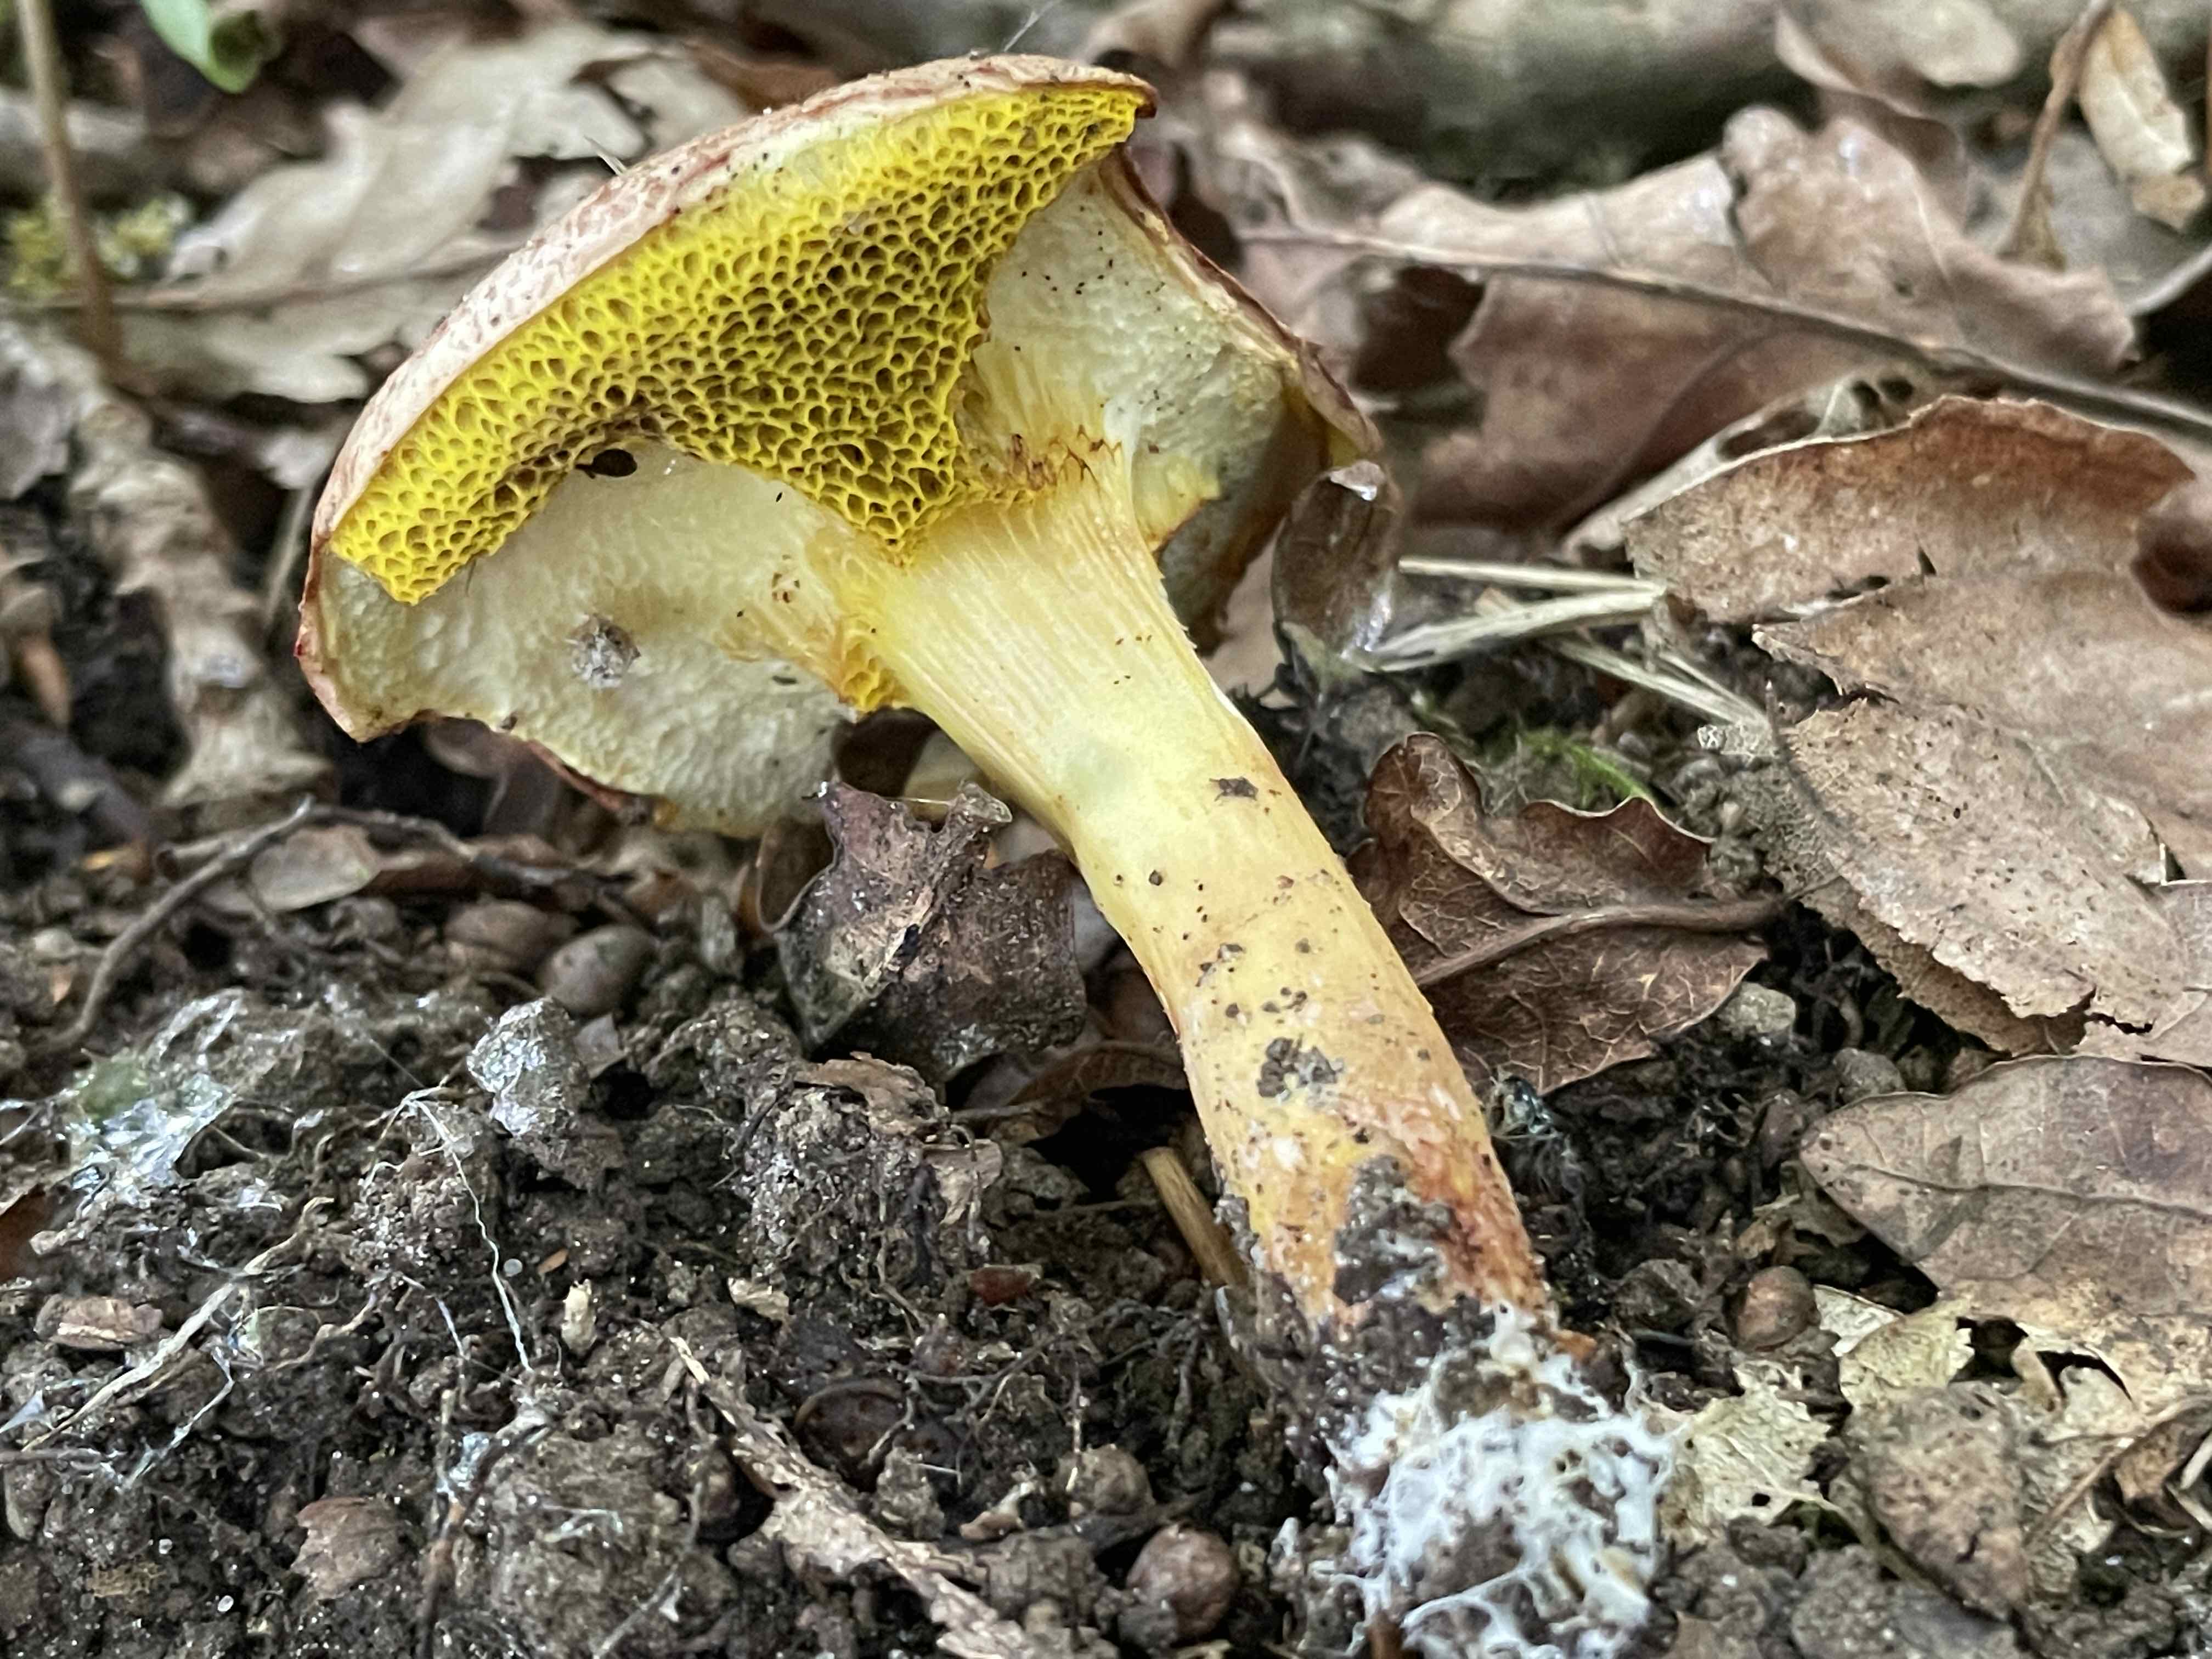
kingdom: Fungi
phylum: Basidiomycota
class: Agaricomycetes
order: Boletales
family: Boletaceae
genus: Aureoboletus
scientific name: Aureoboletus gentilis
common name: guldrørhat
